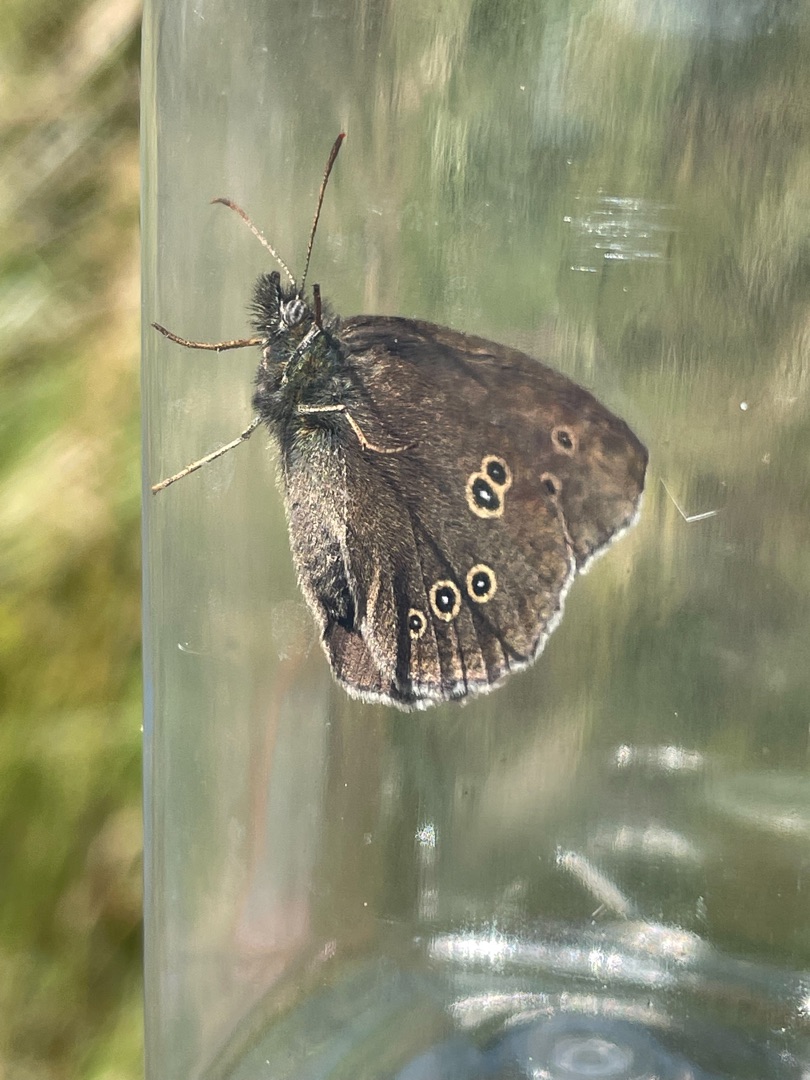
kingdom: Animalia
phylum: Arthropoda
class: Insecta
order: Lepidoptera
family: Nymphalidae
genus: Aphantopus
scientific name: Aphantopus hyperantus
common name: Engrandøje
